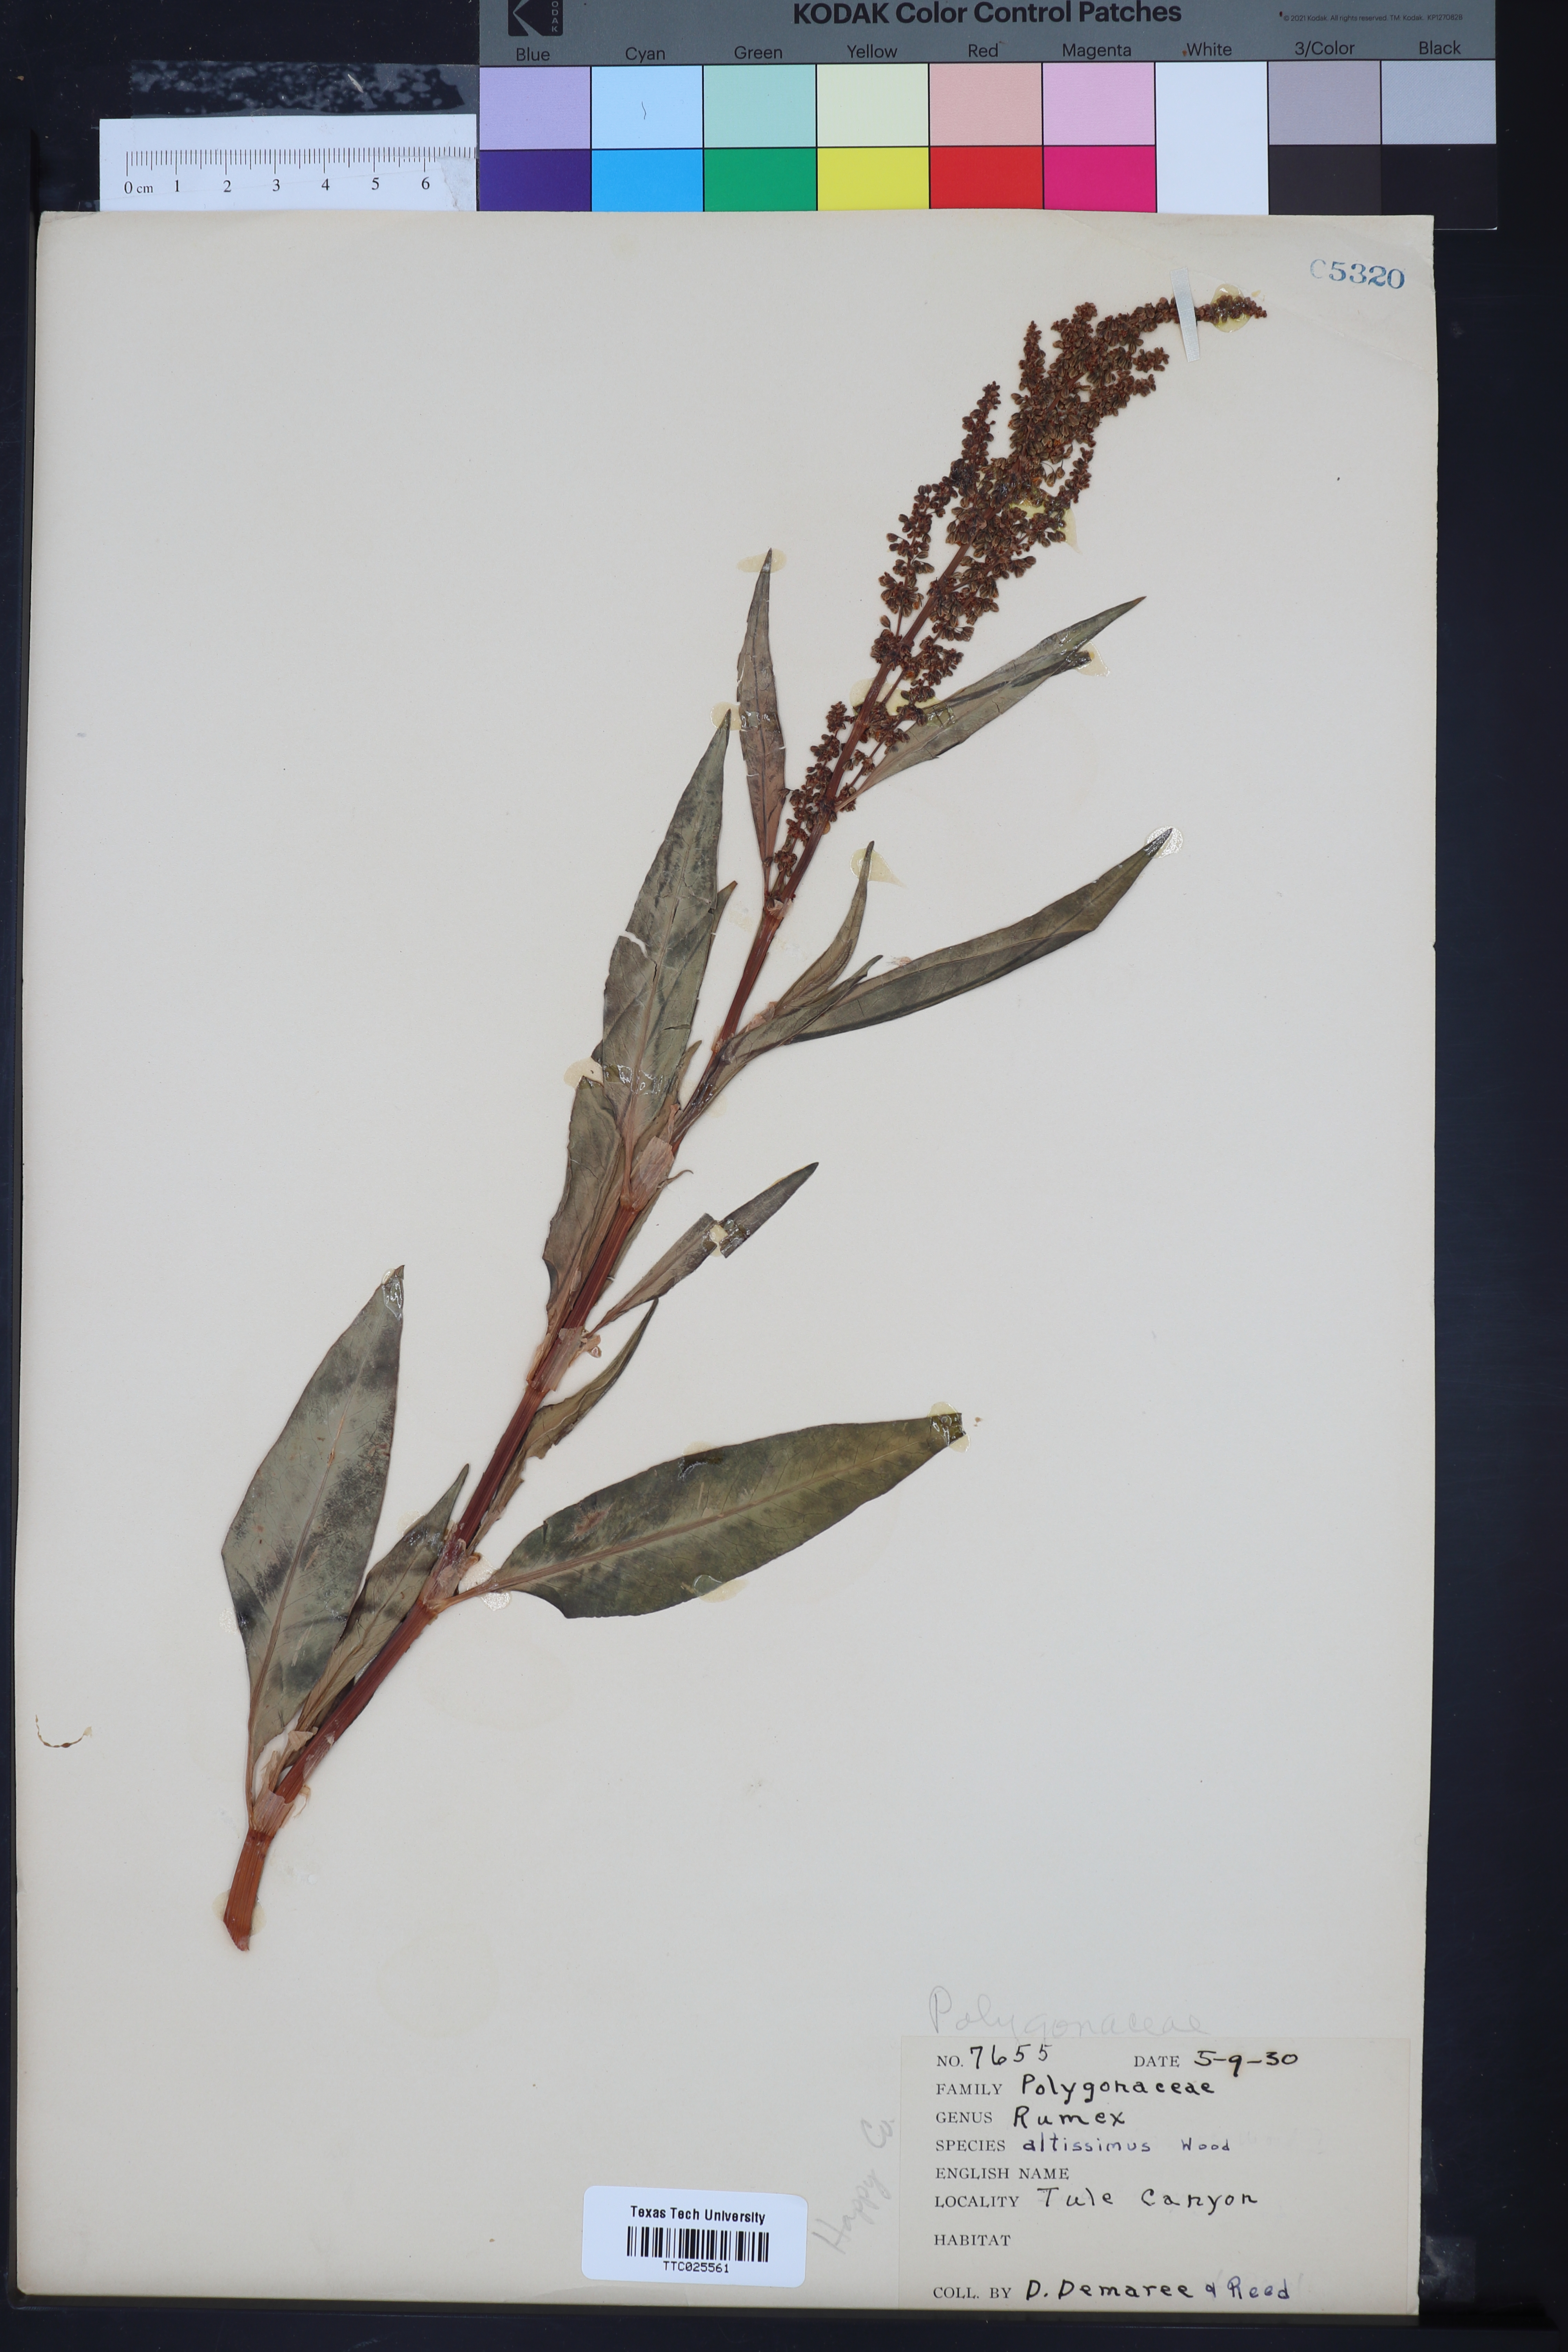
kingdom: Plantae
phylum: Tracheophyta
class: Magnoliopsida
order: Caryophyllales
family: Polygonaceae
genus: Rumex
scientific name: Rumex altissimus
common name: Smooth dock
